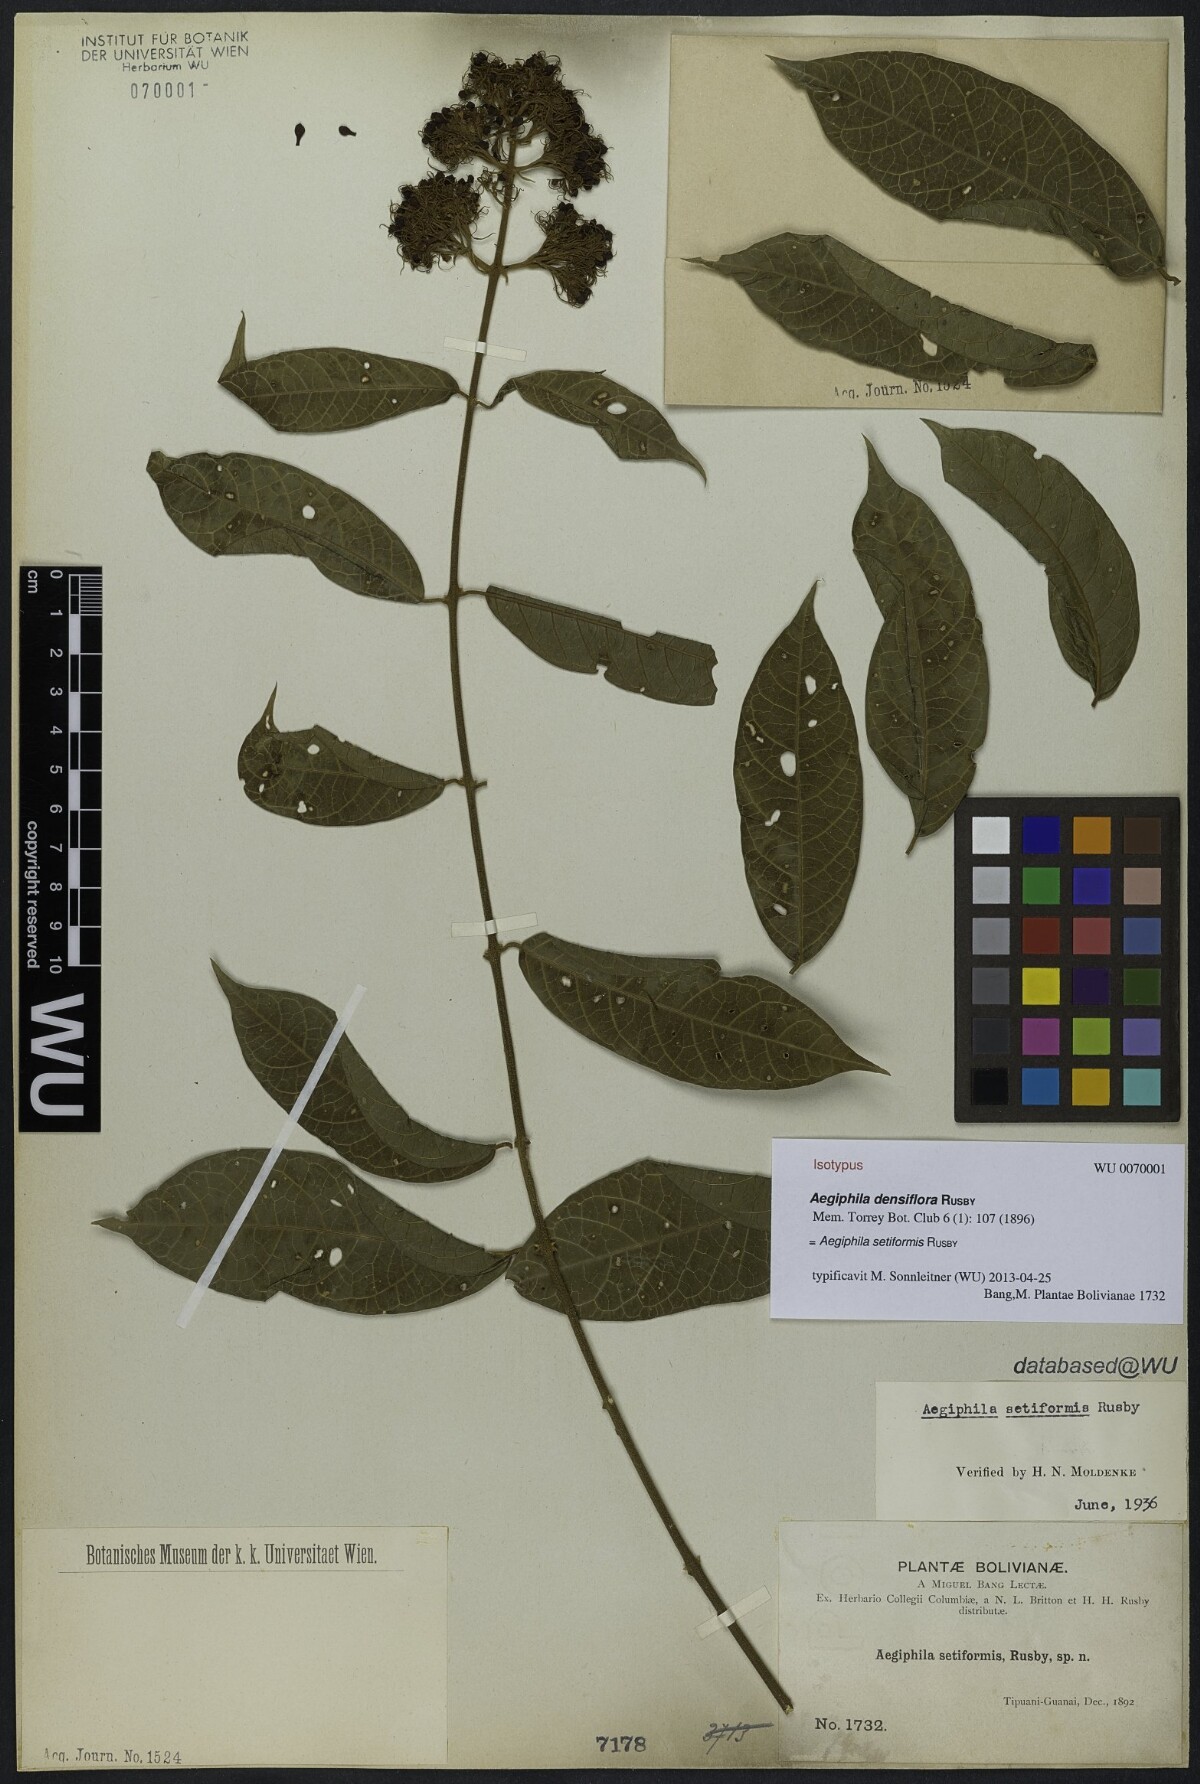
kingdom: Plantae
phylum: Tracheophyta
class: Magnoliopsida
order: Lamiales
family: Lamiaceae
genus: Aegiphila
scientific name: Aegiphila vitelliniflora
